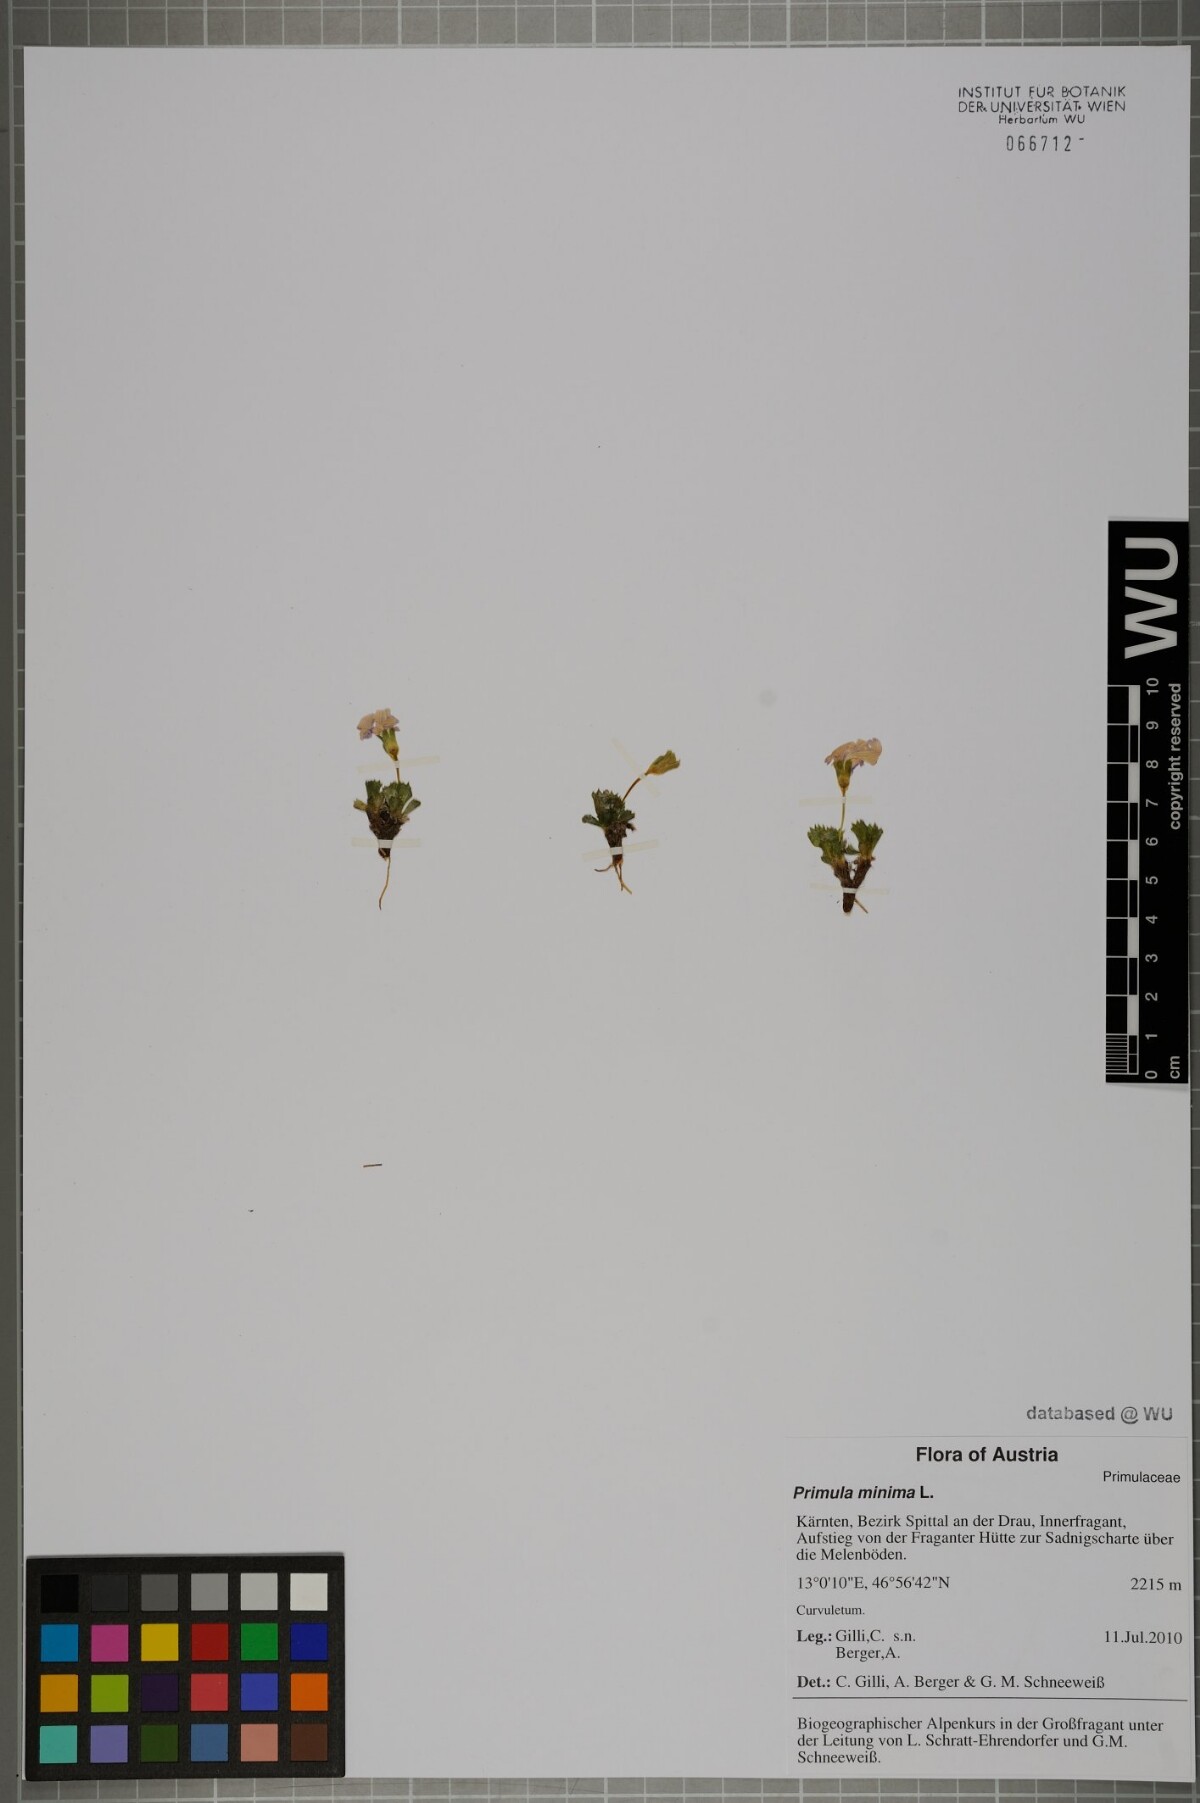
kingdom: Plantae
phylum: Tracheophyta
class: Magnoliopsida
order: Ericales
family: Primulaceae
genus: Primula
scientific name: Primula minima
